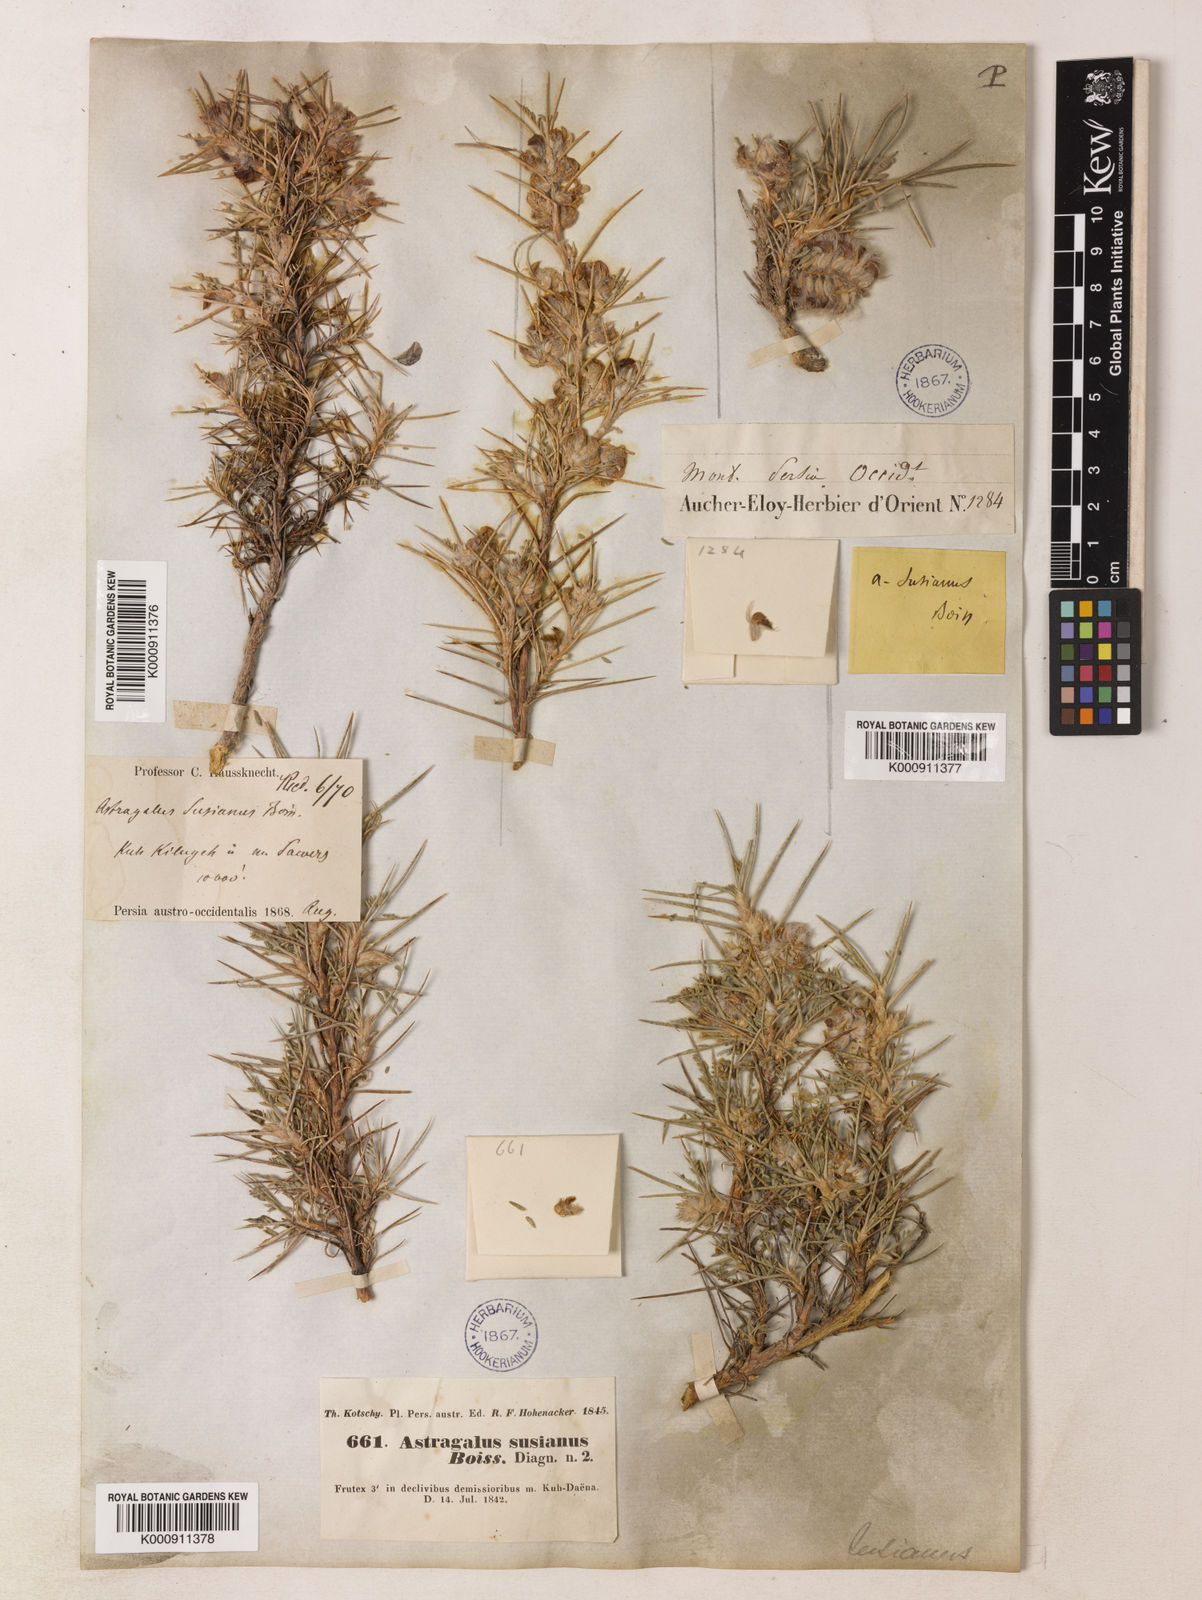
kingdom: Plantae
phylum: Tracheophyta
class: Magnoliopsida
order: Fabales
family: Fabaceae
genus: Astragalus
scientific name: Astragalus susianus
